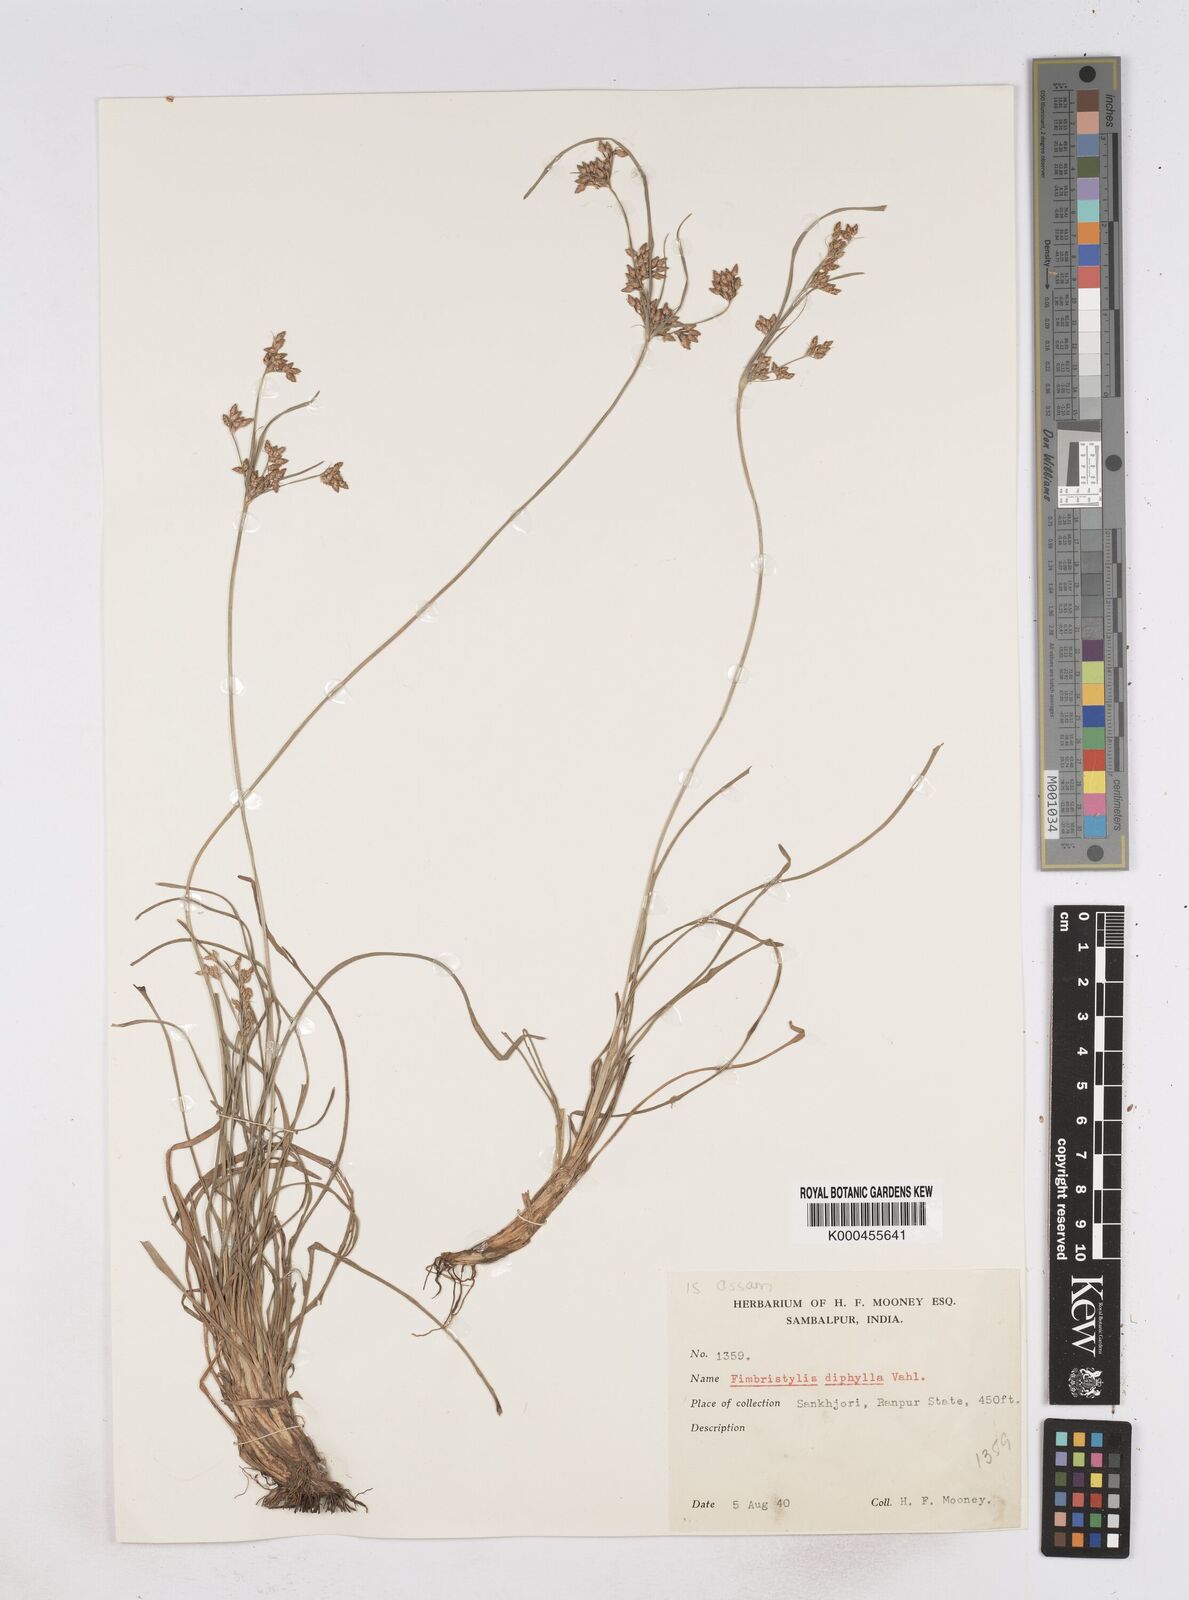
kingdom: Plantae
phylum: Tracheophyta
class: Liliopsida
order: Poales
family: Cyperaceae
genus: Fimbristylis
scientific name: Fimbristylis dichotoma
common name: Forked fimbry
